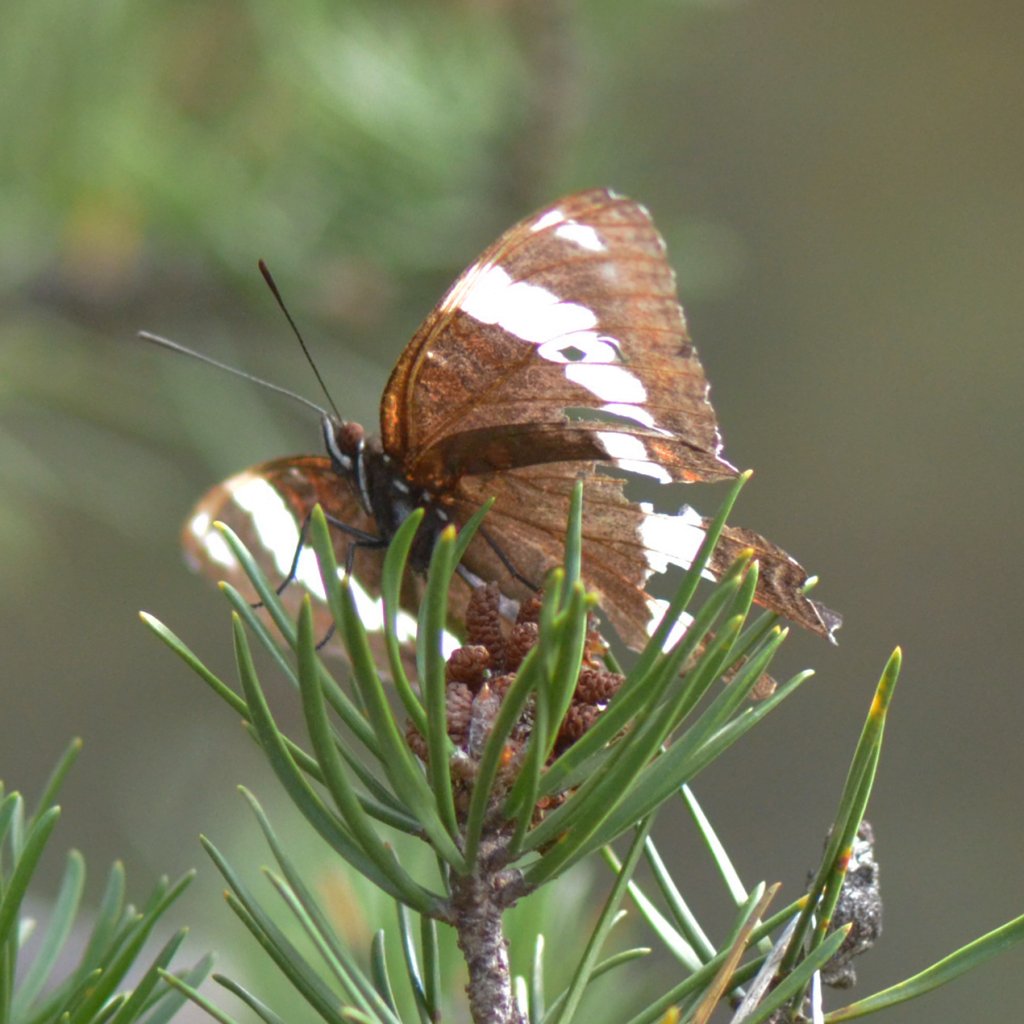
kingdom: Animalia
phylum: Arthropoda
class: Insecta
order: Lepidoptera
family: Nymphalidae
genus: Limenitis
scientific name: Limenitis arthemis
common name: Red-spotted Admiral
